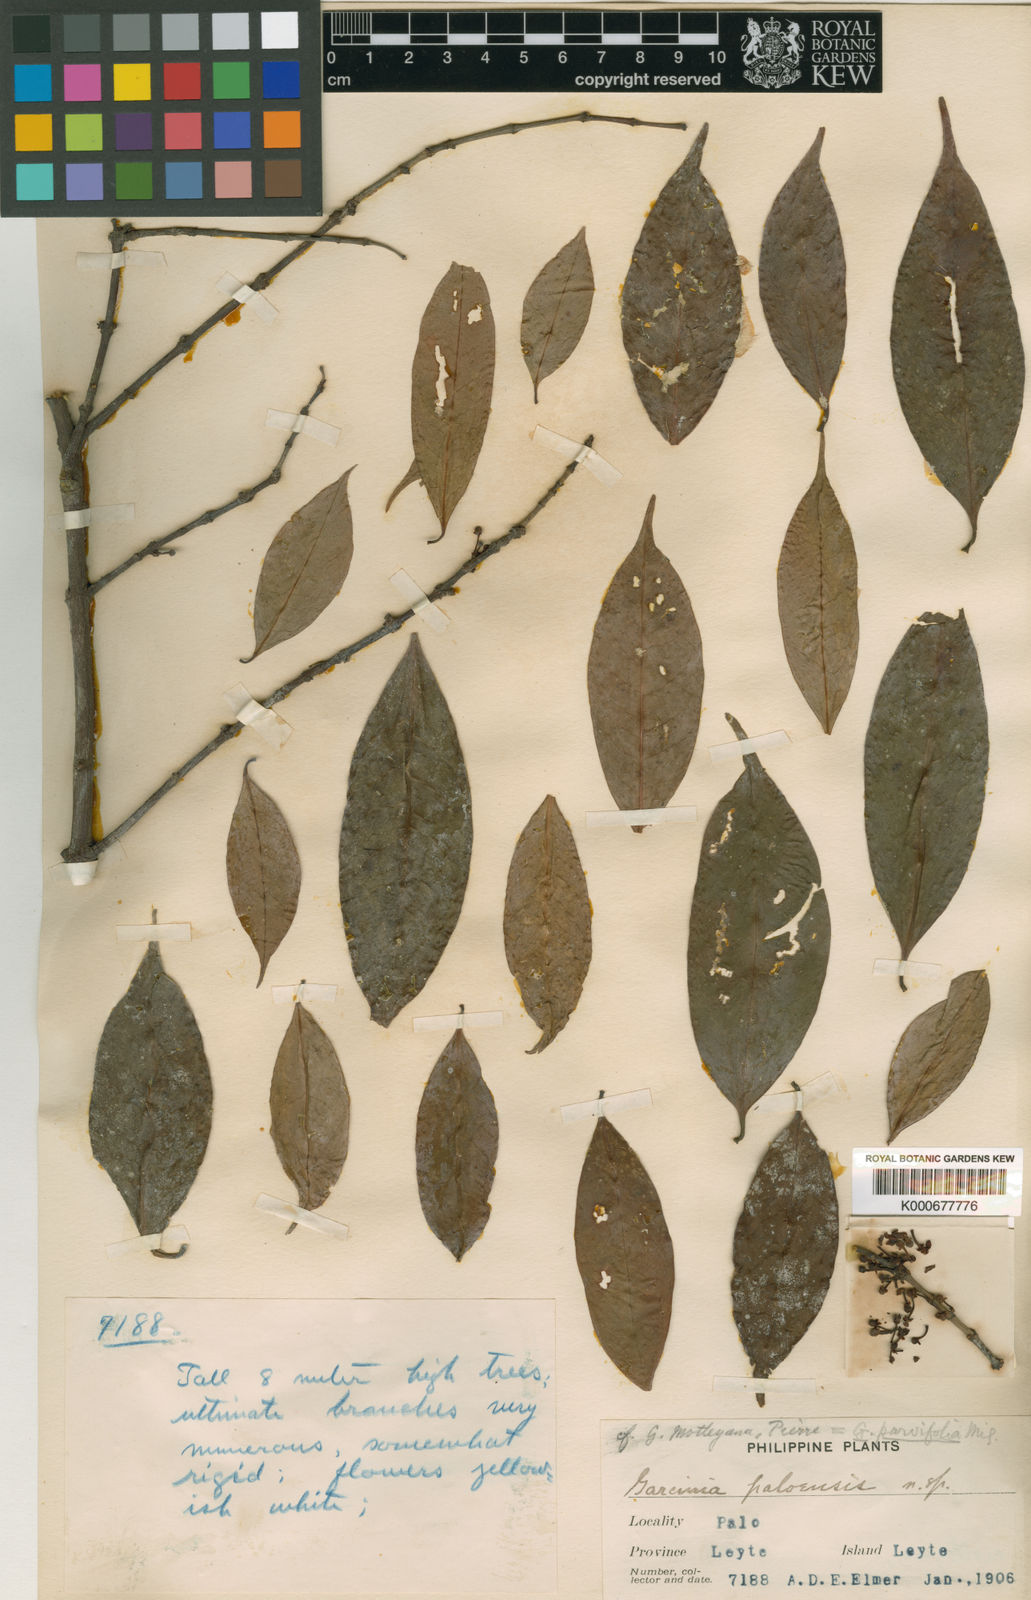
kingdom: Plantae
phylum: Tracheophyta
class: Magnoliopsida
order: Malpighiales
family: Clusiaceae
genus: Garcinia
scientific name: Garcinia parvifolia
